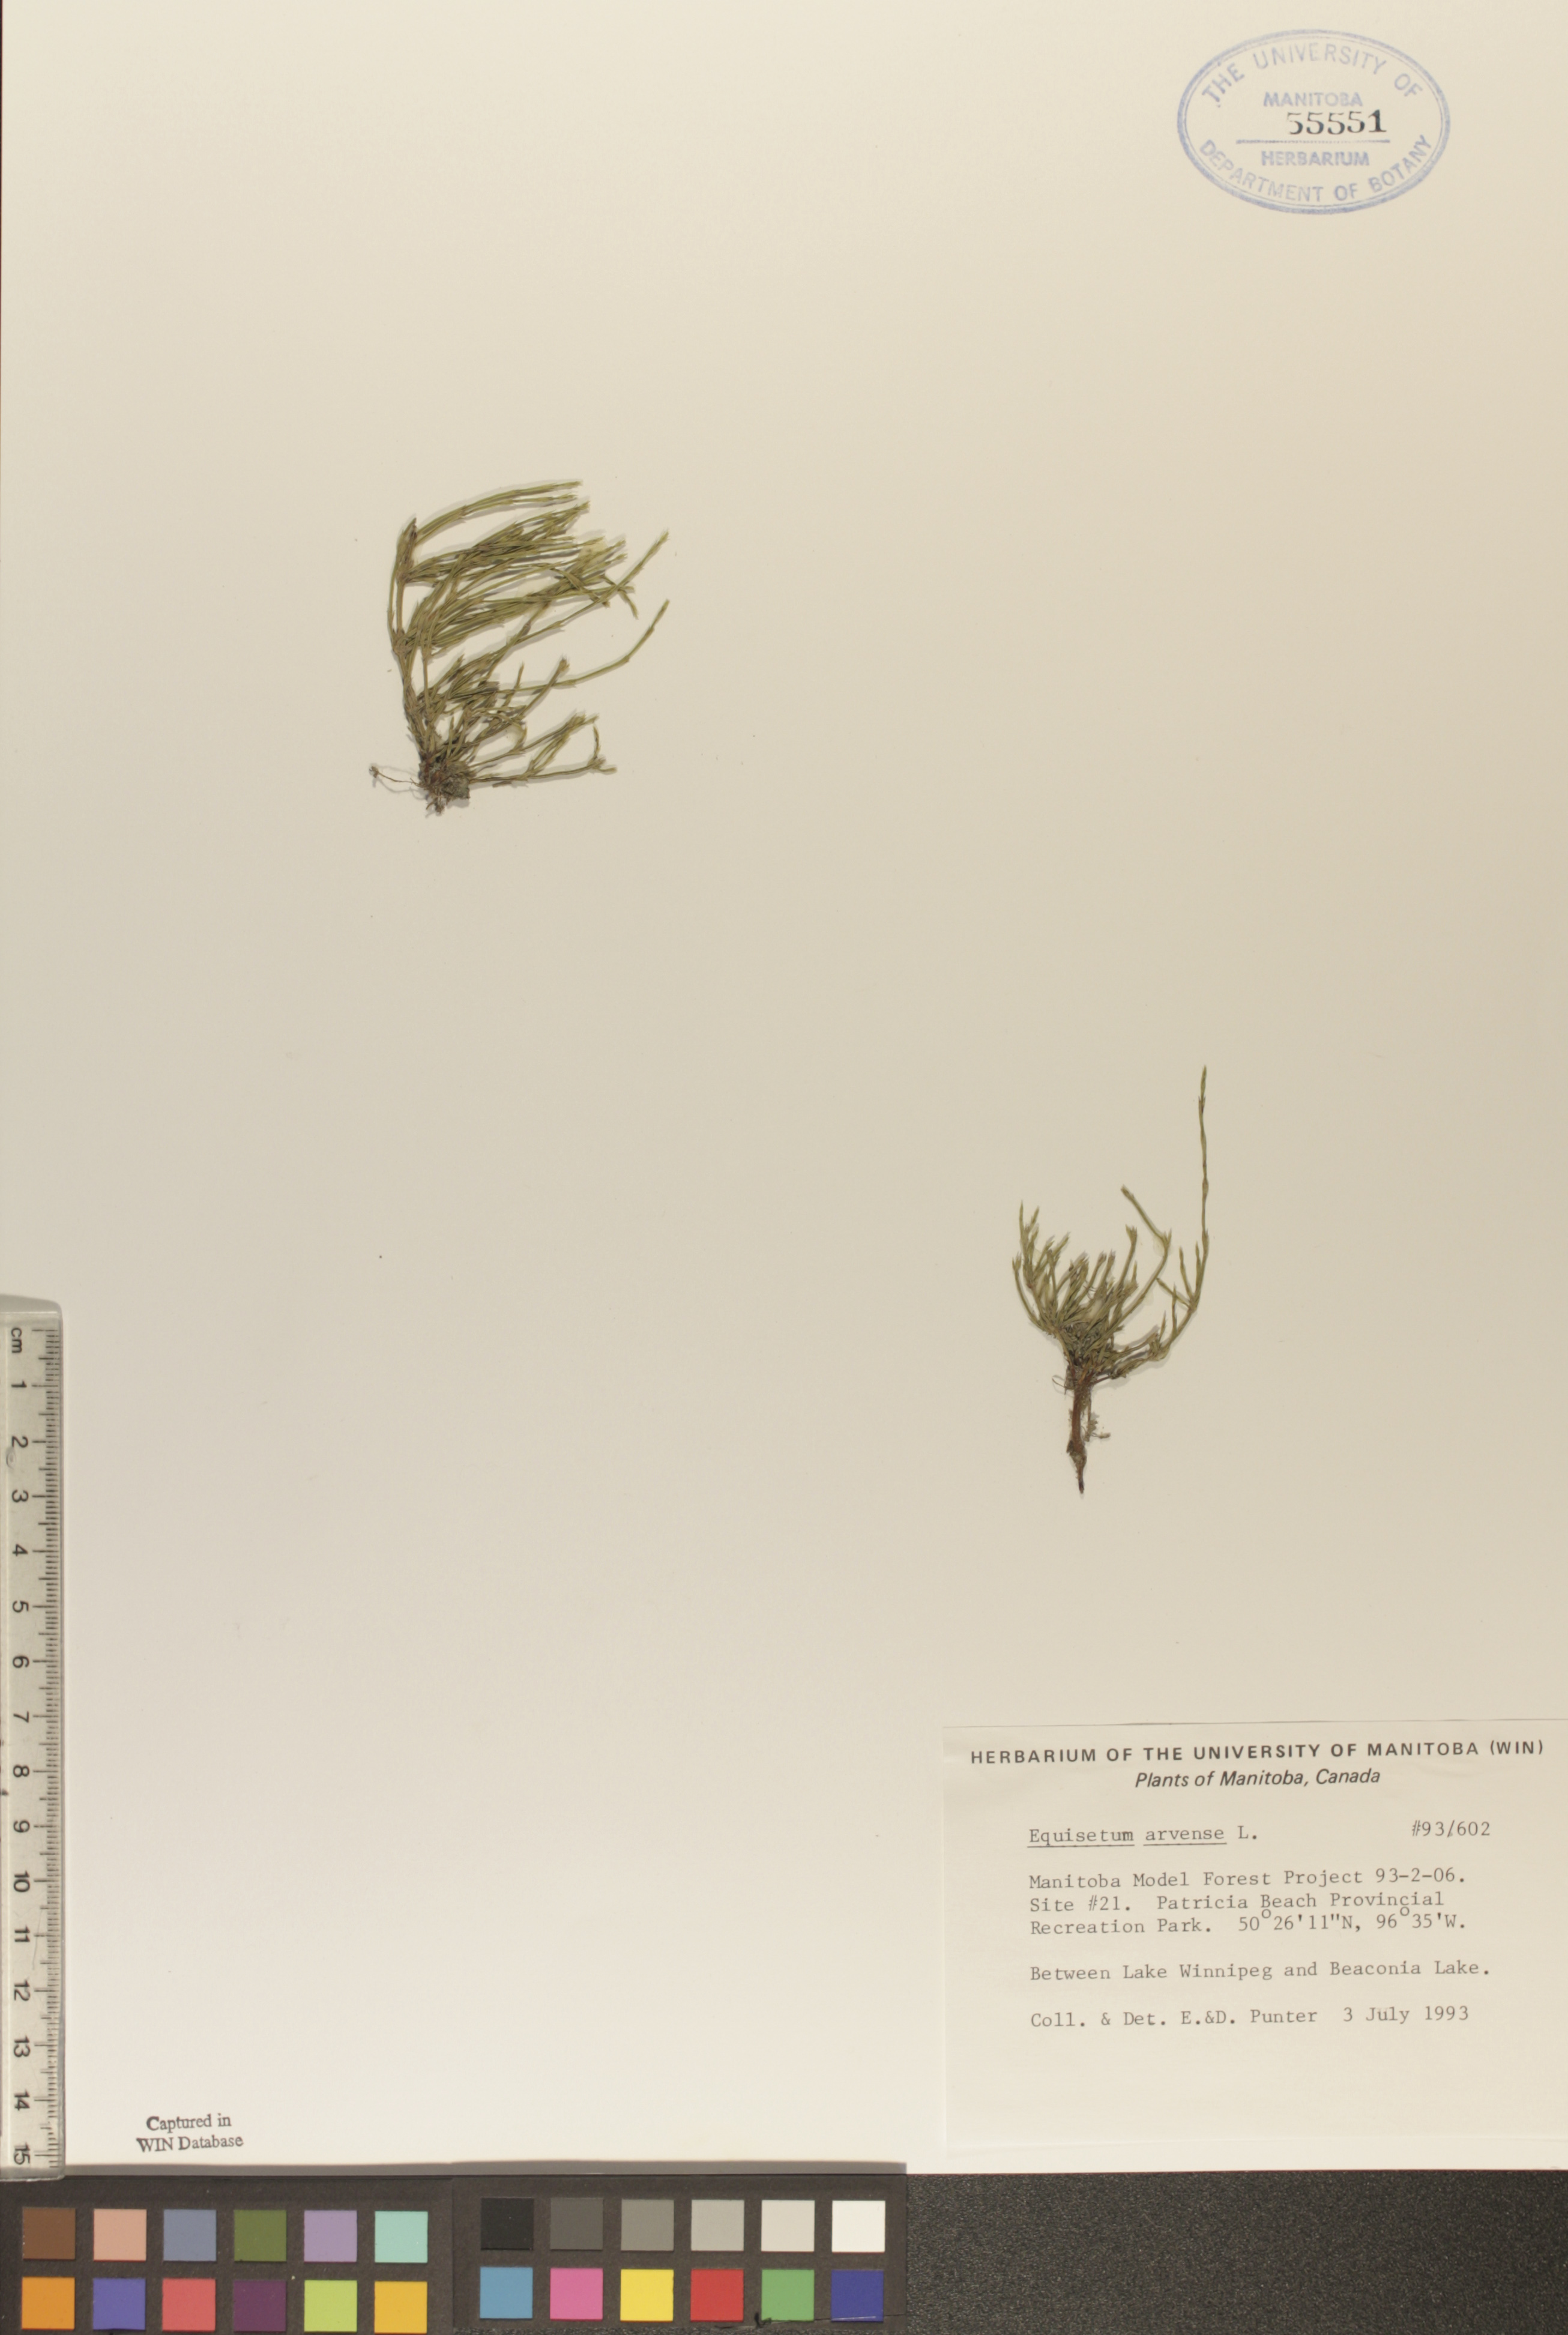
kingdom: Plantae
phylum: Tracheophyta
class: Polypodiopsida
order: Equisetales
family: Equisetaceae
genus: Equisetum
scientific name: Equisetum arvense
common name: Field horsetail
